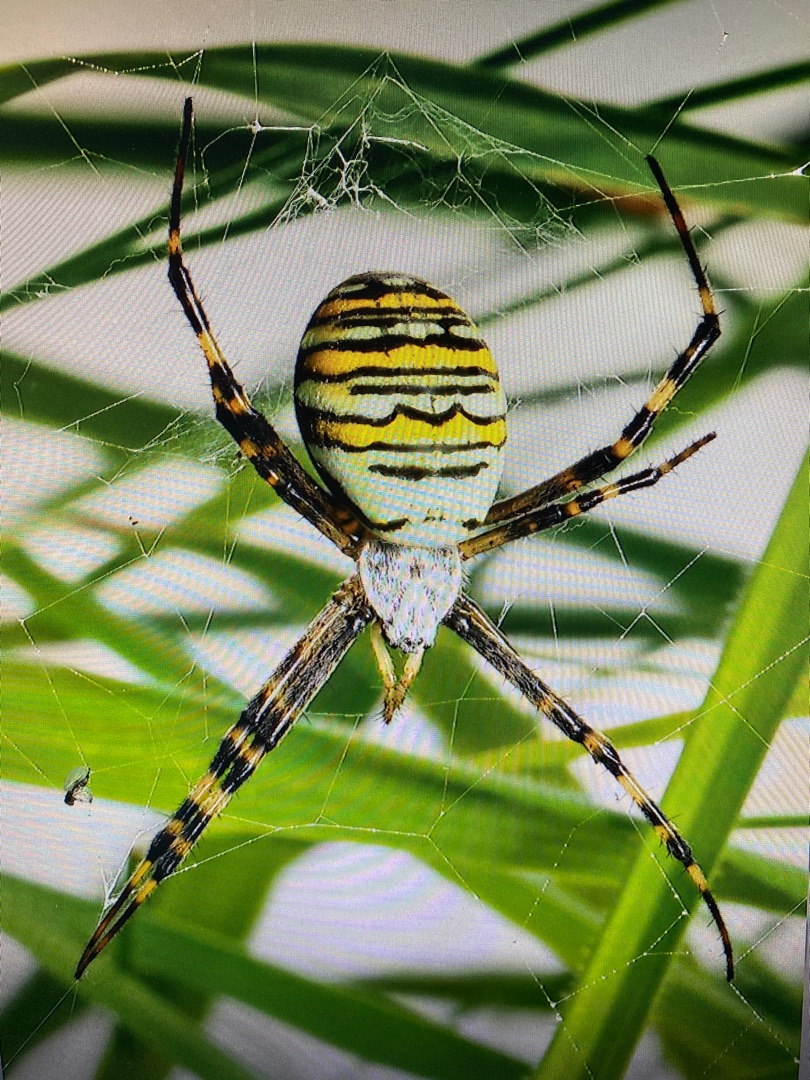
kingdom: Animalia
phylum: Arthropoda
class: Arachnida
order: Araneae
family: Araneidae
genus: Argiope
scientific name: Argiope bruennichi
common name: Hvepseedderkop
